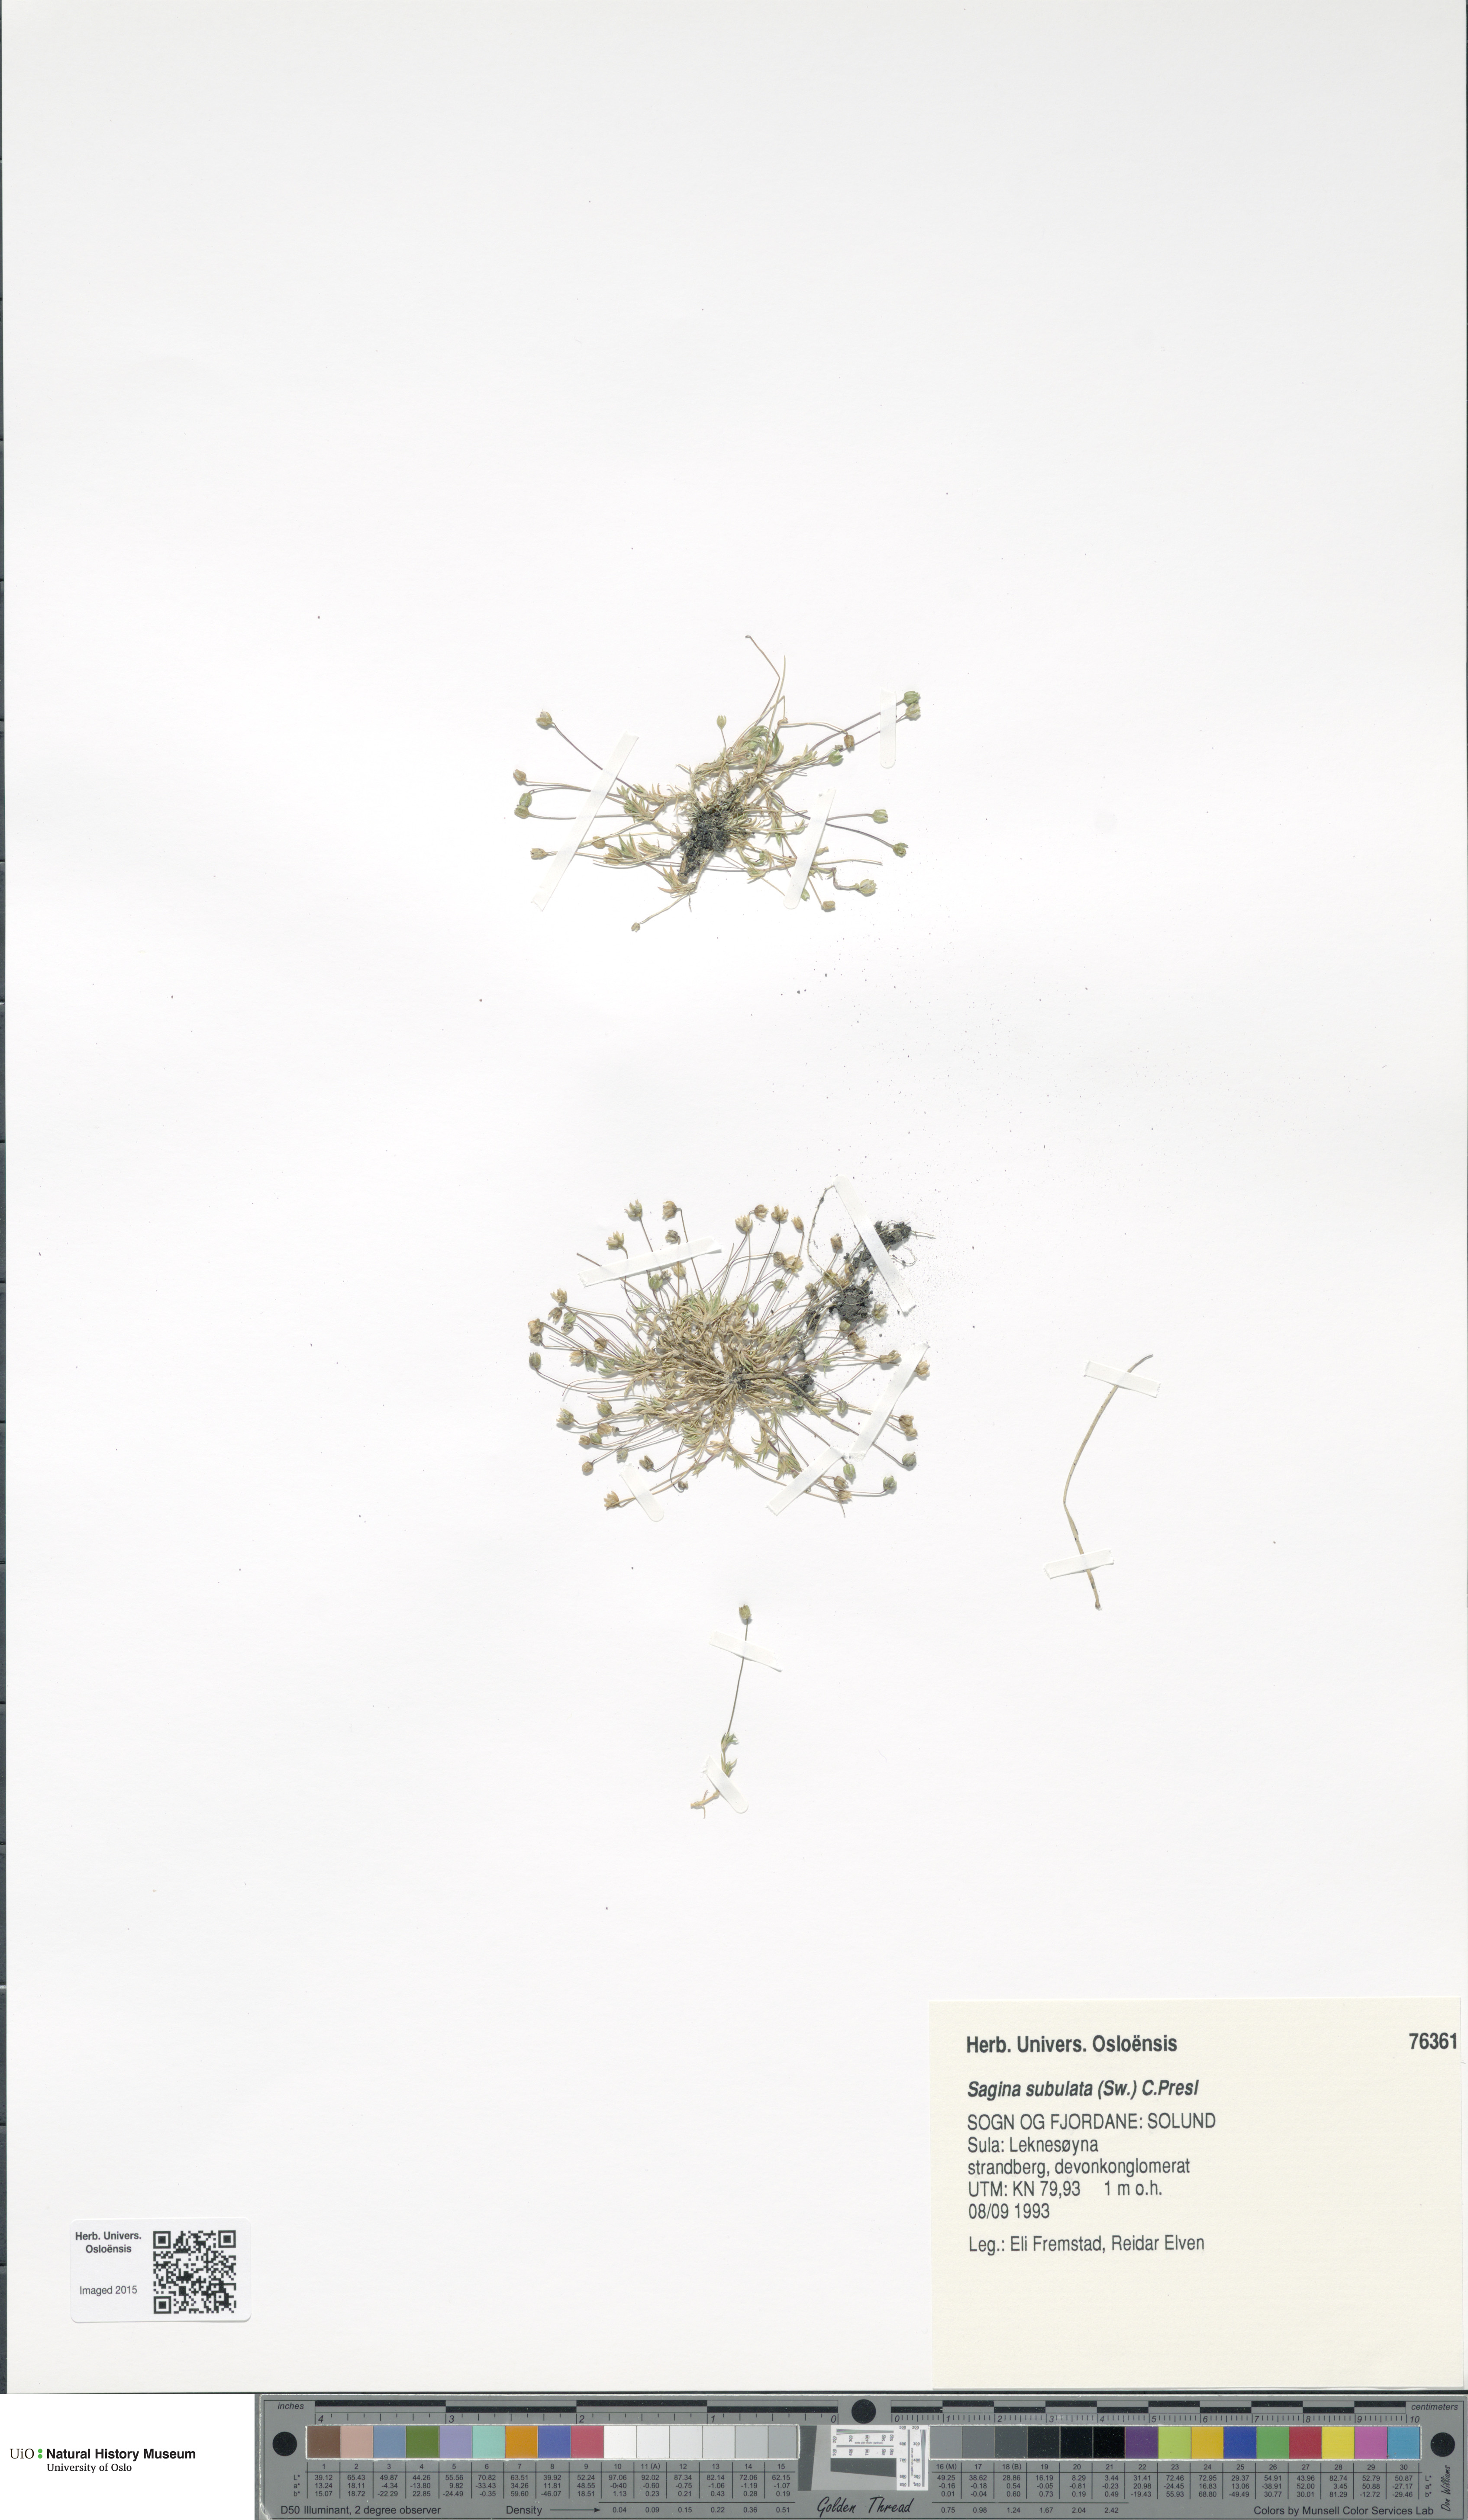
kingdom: Plantae
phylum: Tracheophyta
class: Magnoliopsida
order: Caryophyllales
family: Caryophyllaceae
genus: Sagina
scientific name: Sagina alexandrae
